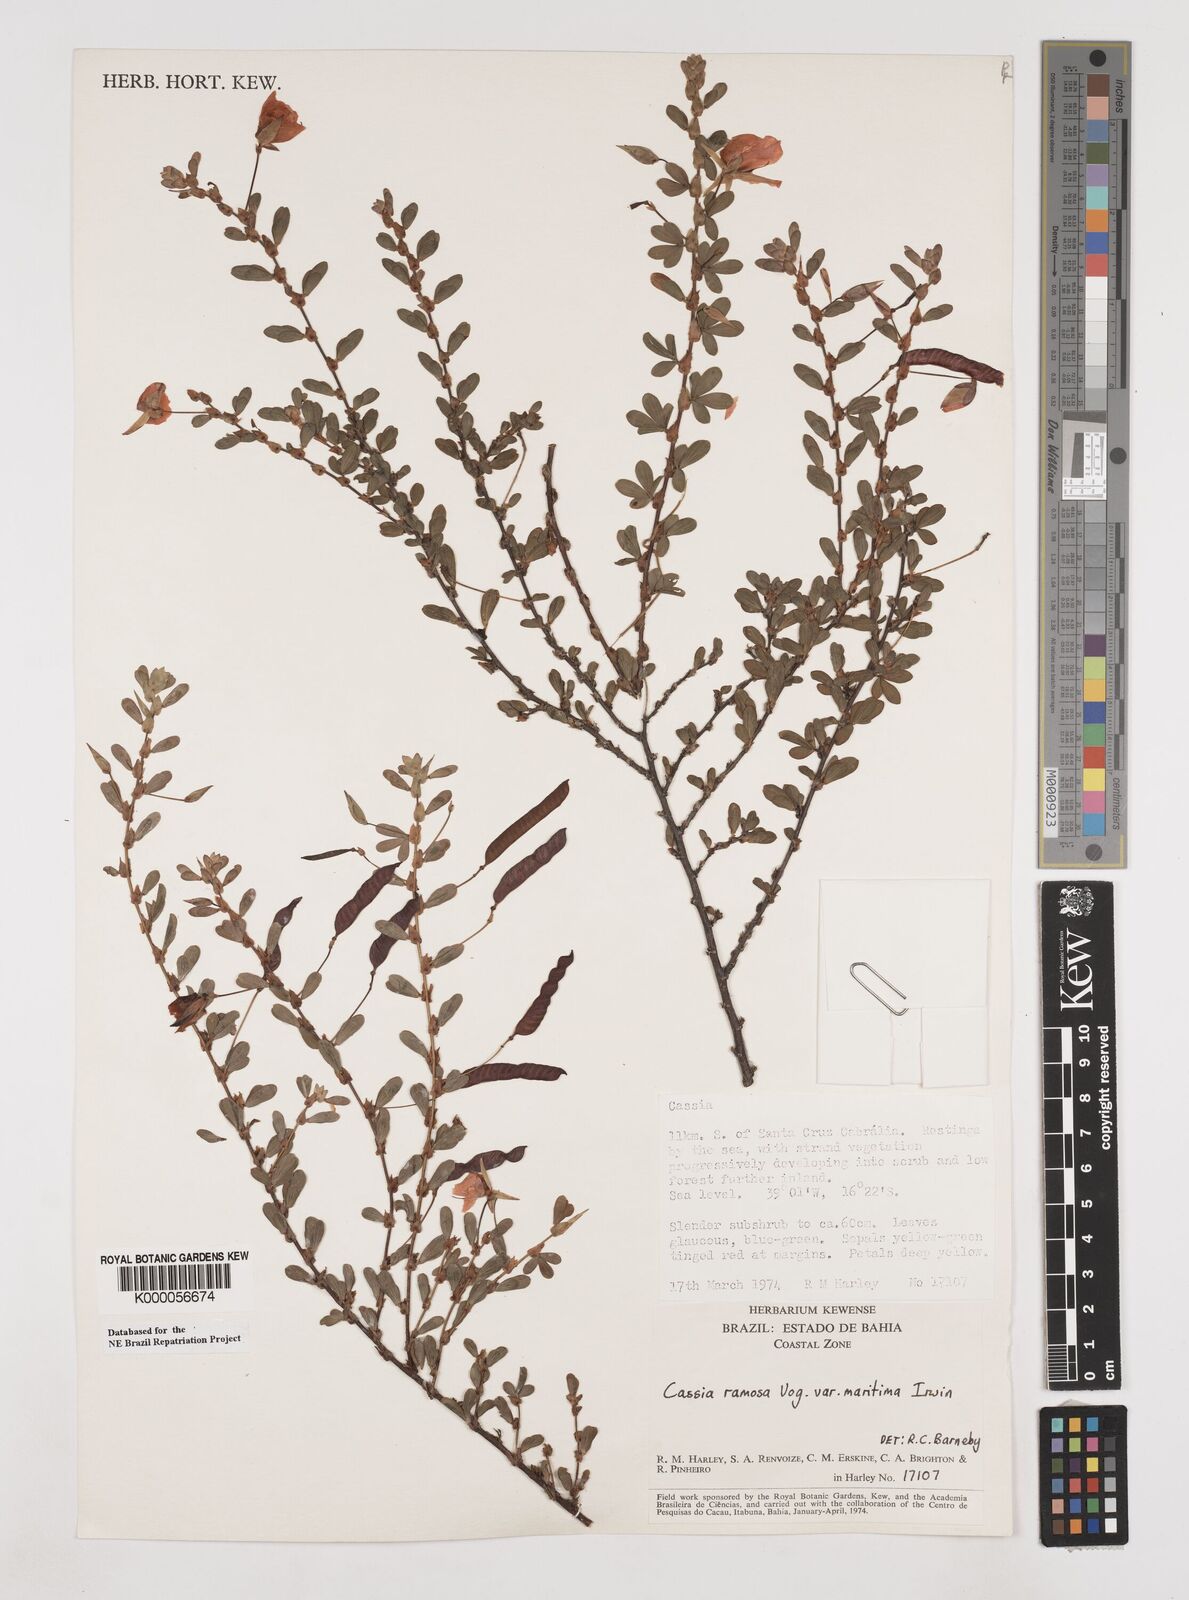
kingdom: Plantae
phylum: Tracheophyta
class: Magnoliopsida
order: Fabales
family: Fabaceae
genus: Chamaecrista
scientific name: Chamaecrista ramosa
